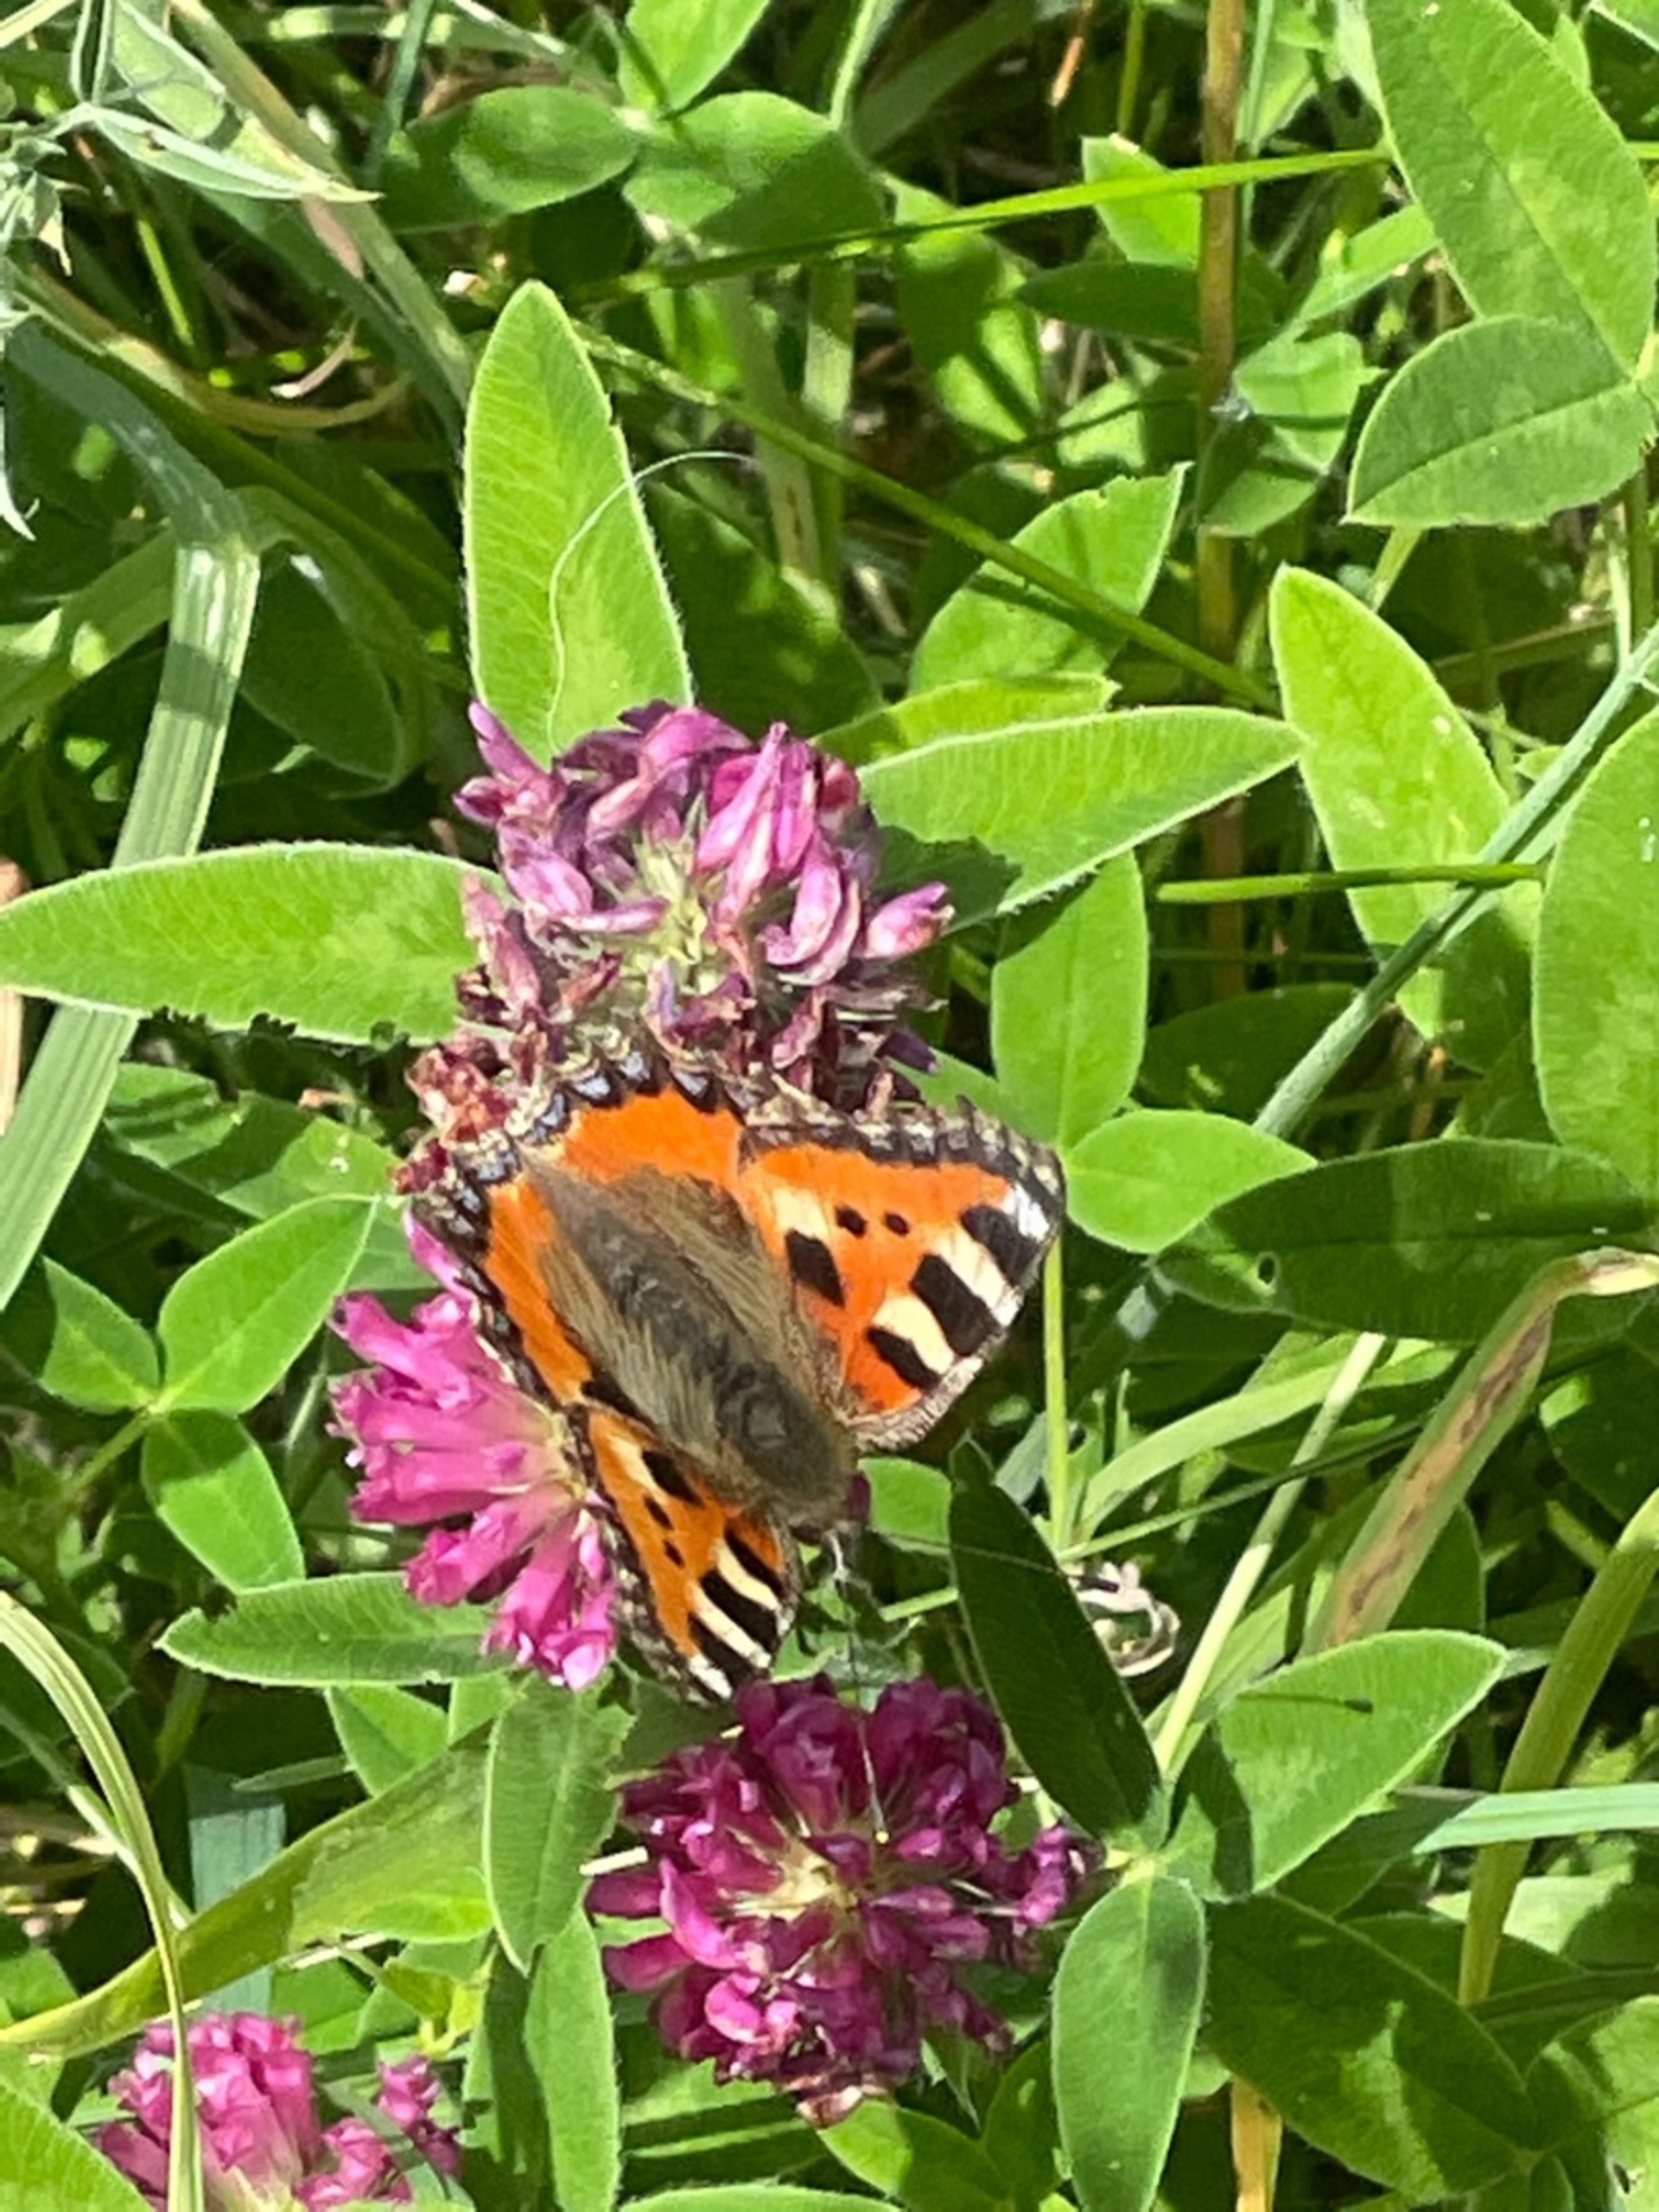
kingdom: Animalia
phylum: Arthropoda
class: Insecta
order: Lepidoptera
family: Nymphalidae
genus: Aglais
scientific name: Aglais urticae
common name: Nældens takvinge
